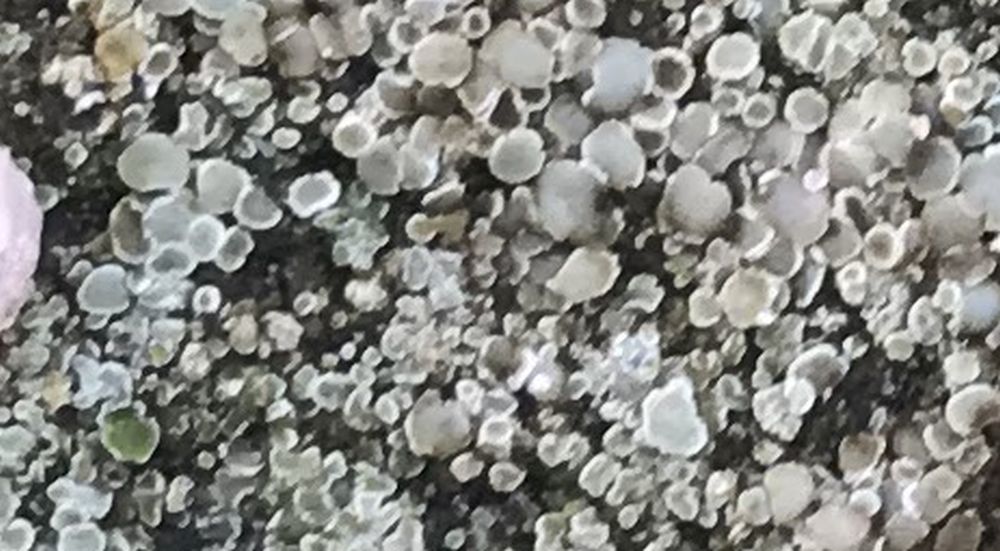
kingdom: Fungi
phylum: Ascomycota
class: Lecanoromycetes
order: Lecanorales
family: Lecanoraceae
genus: Protoparmeliopsis
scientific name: Protoparmeliopsis muralis
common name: randfliget kantskivelav
